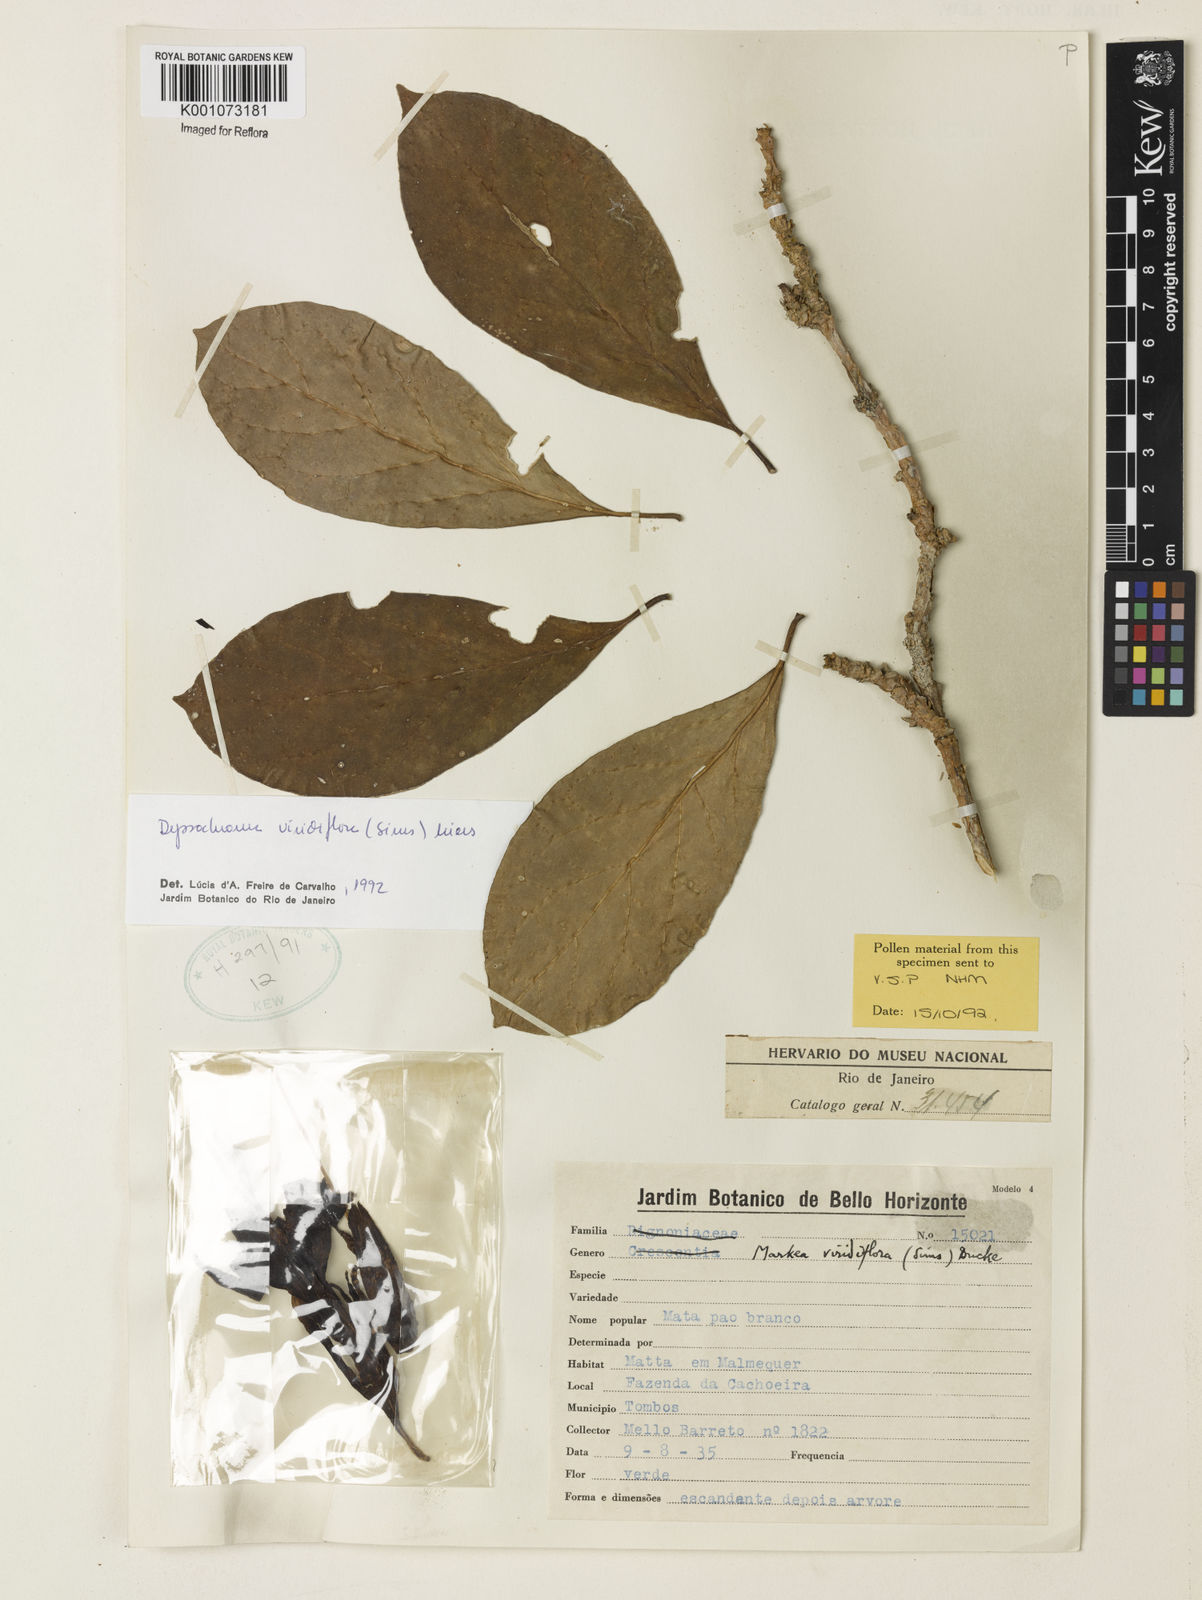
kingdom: Plantae
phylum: Tracheophyta
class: Magnoliopsida
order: Solanales
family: Solanaceae
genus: Dyssochroma
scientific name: Dyssochroma viridiflorum
